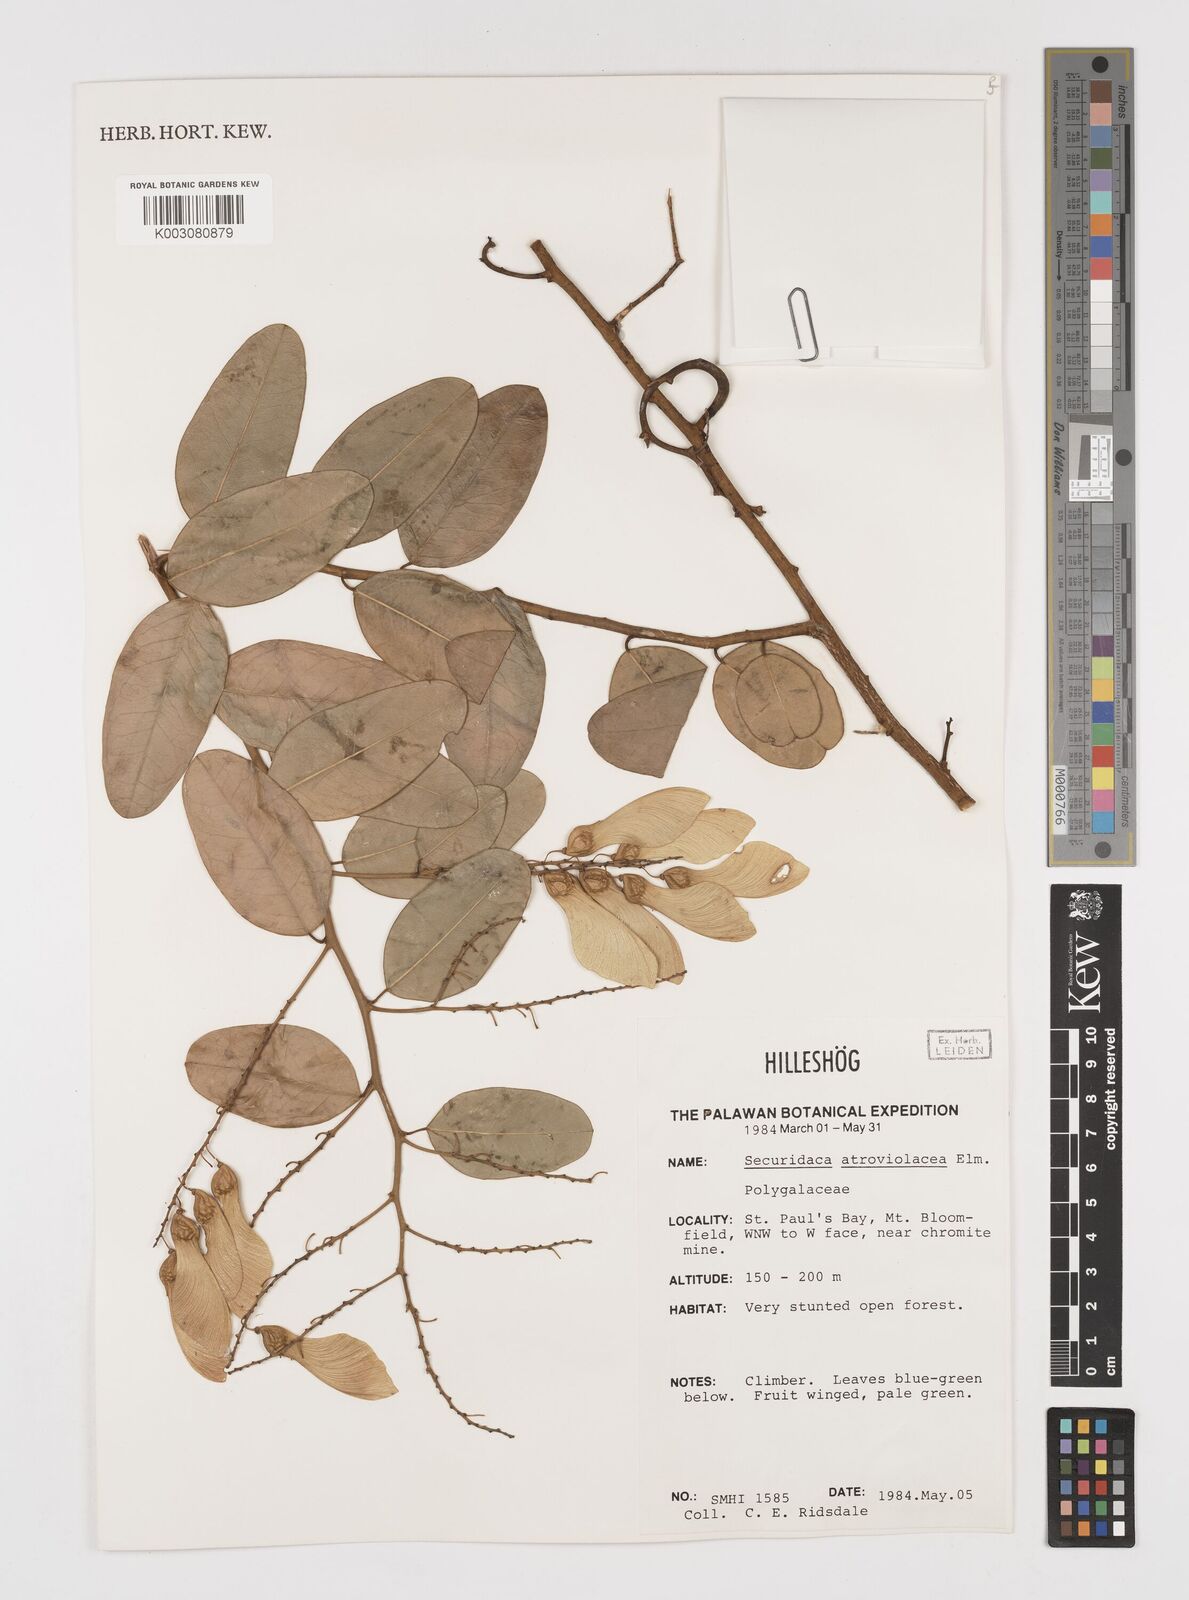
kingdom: Plantae
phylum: Tracheophyta
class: Magnoliopsida
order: Fabales
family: Polygalaceae
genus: Securidaca
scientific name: Securidaca atroviolacea
